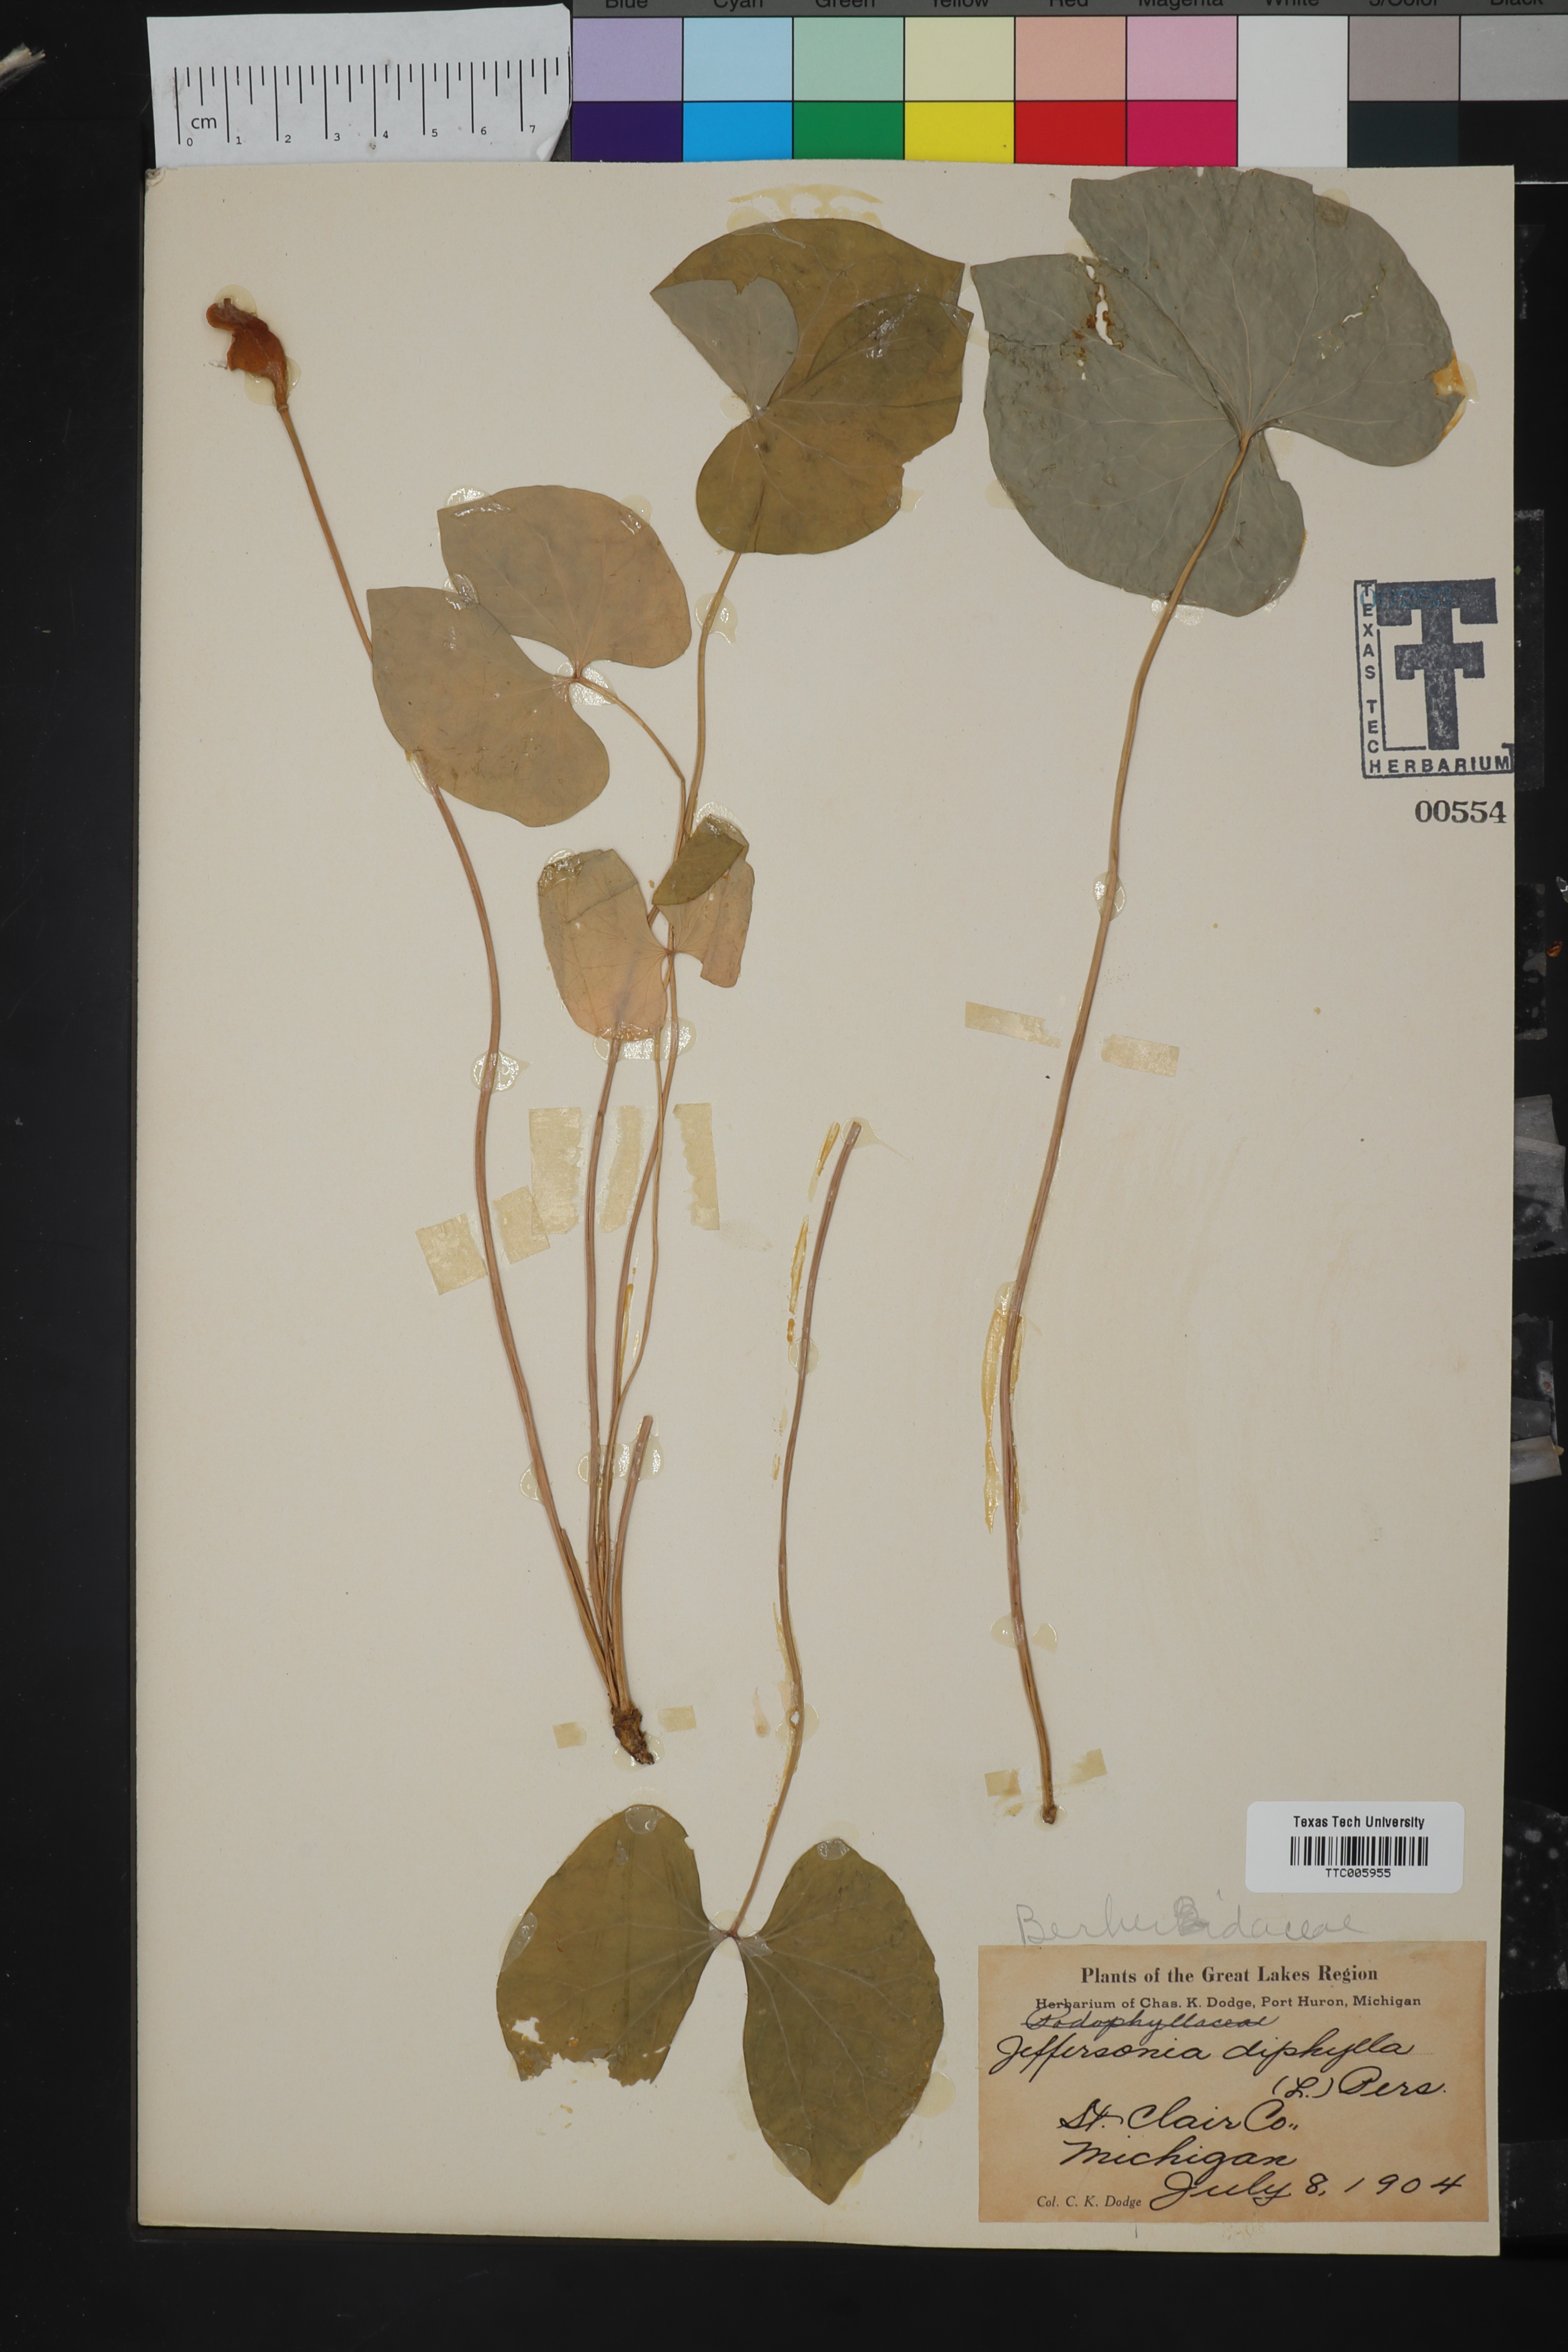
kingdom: Plantae
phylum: Tracheophyta
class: Magnoliopsida
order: Ranunculales
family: Berberidaceae
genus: Jeffersonia
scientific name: Jeffersonia diphylla
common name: Rheumatism-root
